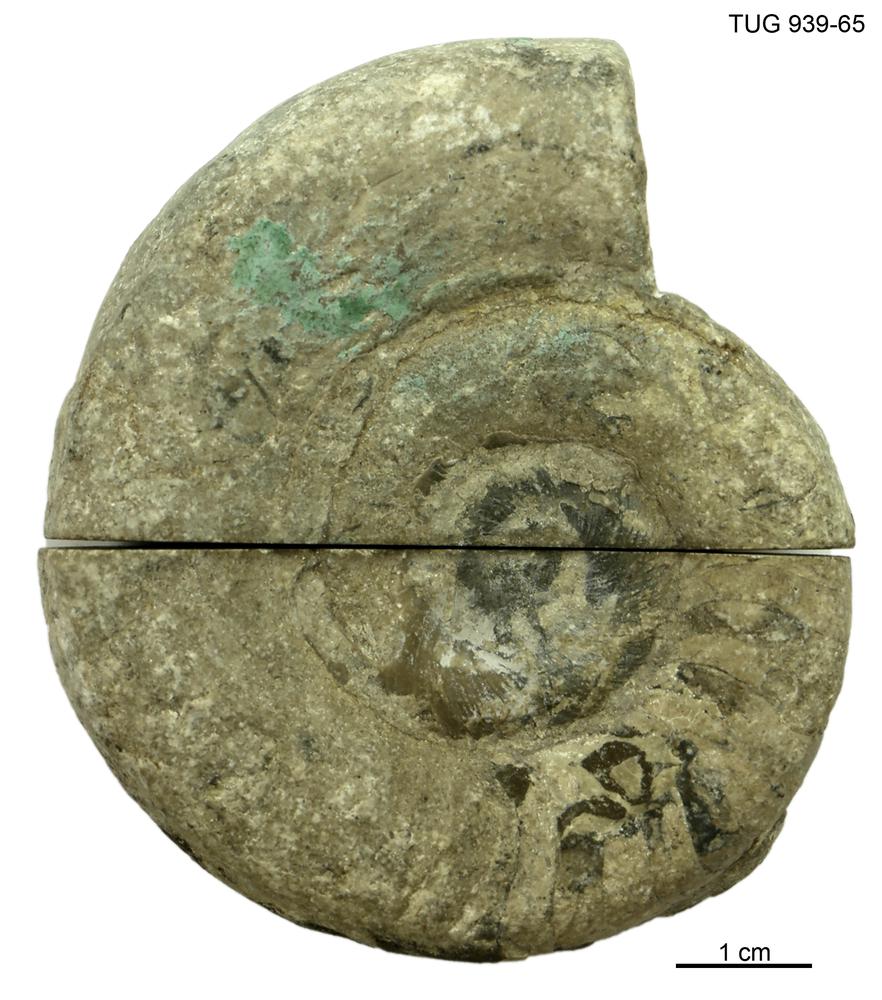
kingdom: Animalia
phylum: Mollusca
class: Cephalopoda
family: Trocholitidae
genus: Schroederoceras
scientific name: Schroederoceras
